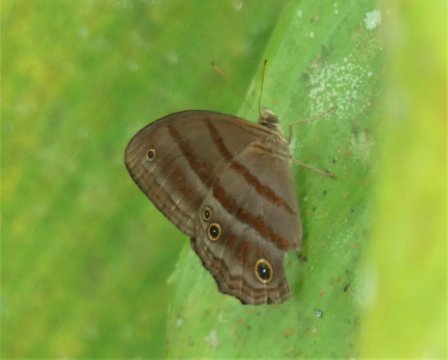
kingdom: Animalia
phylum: Arthropoda
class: Insecta
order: Lepidoptera
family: Nymphalidae
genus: Magneuptychia
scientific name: Magneuptychia tiessa
